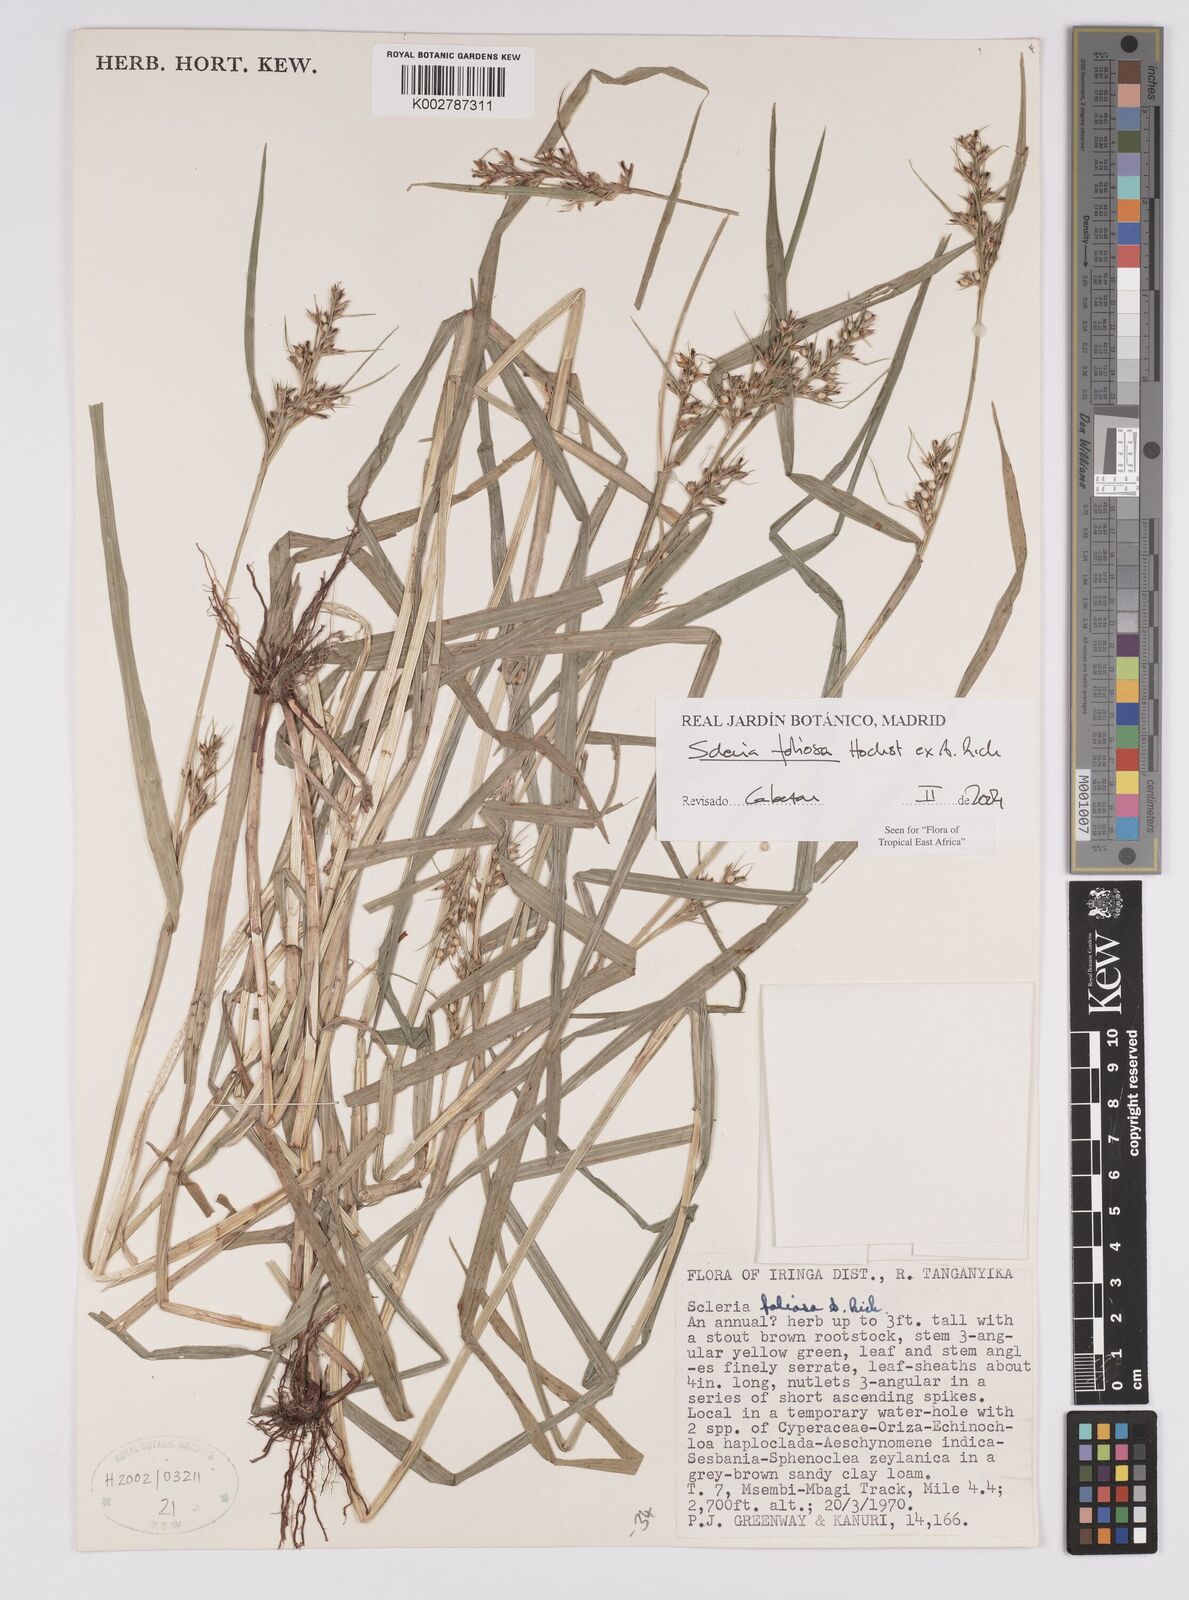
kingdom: Plantae
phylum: Tracheophyta
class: Liliopsida
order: Poales
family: Cyperaceae
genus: Scleria
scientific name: Scleria foliosa
